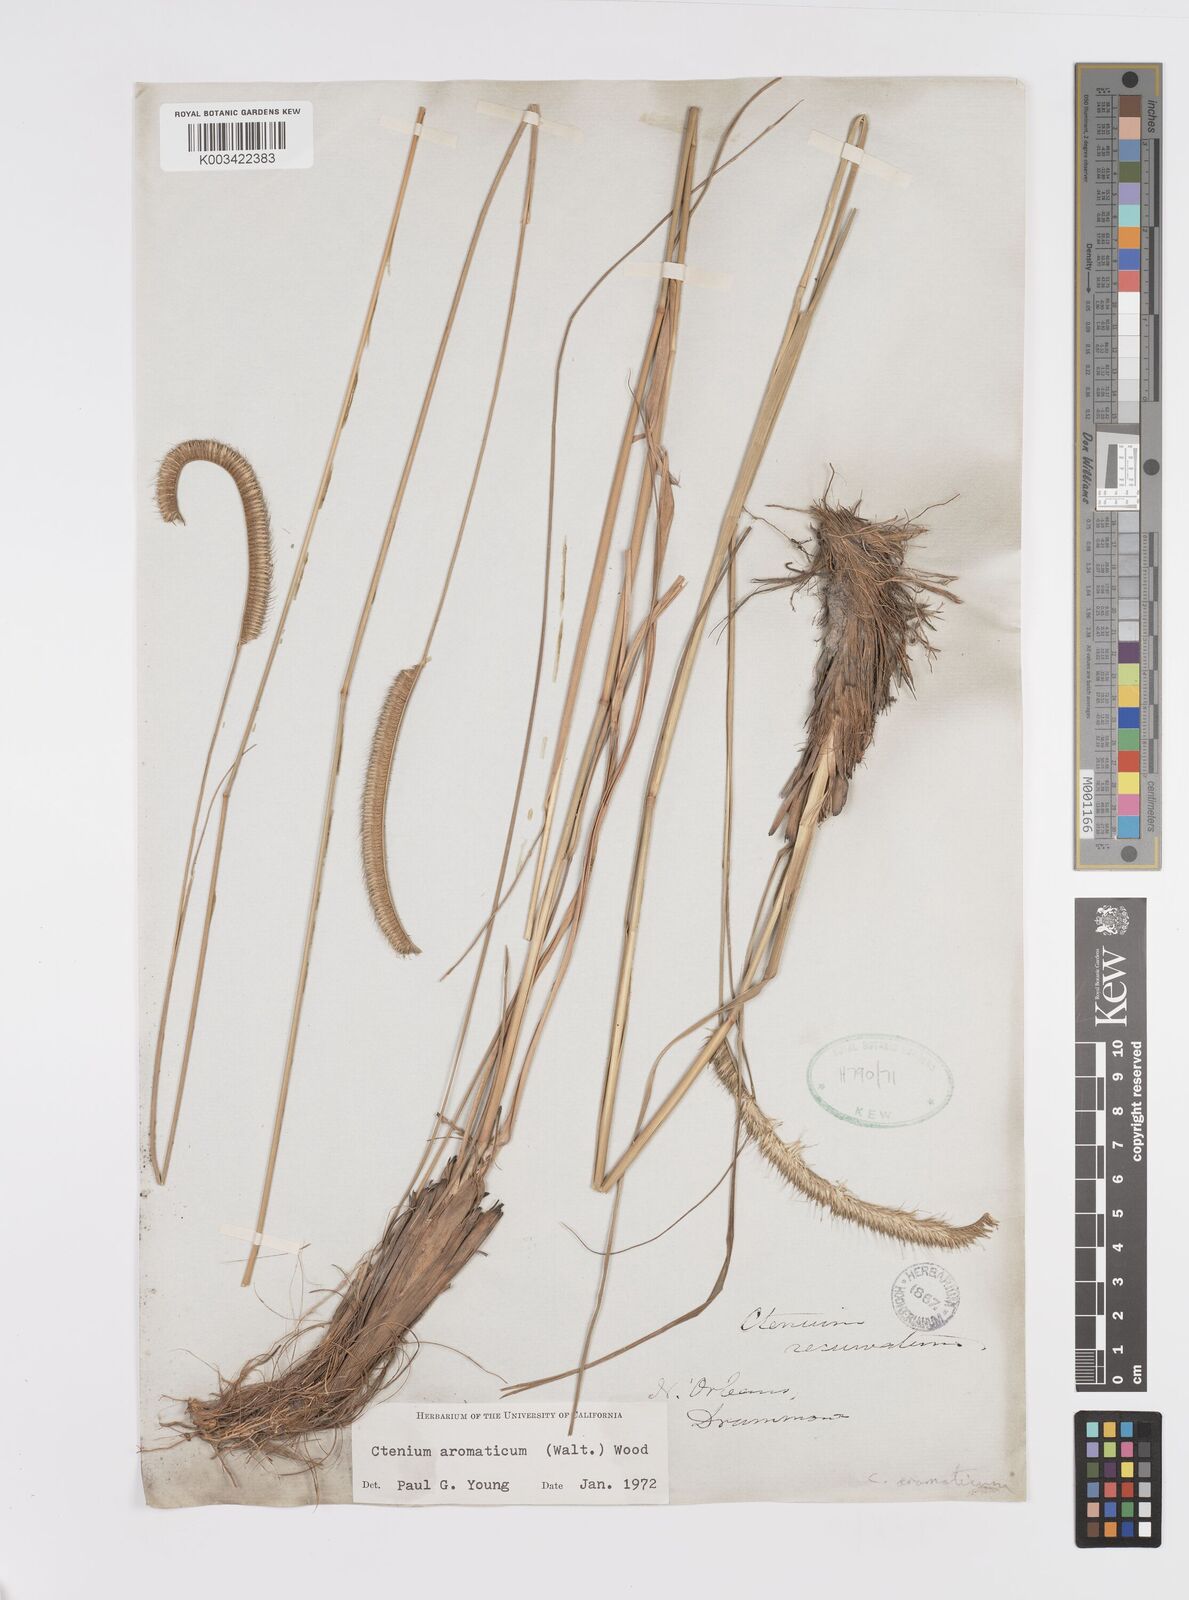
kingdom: Plantae
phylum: Tracheophyta
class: Liliopsida
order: Poales
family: Poaceae
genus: Ctenium
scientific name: Ctenium aromaticum
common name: Toothache grass
